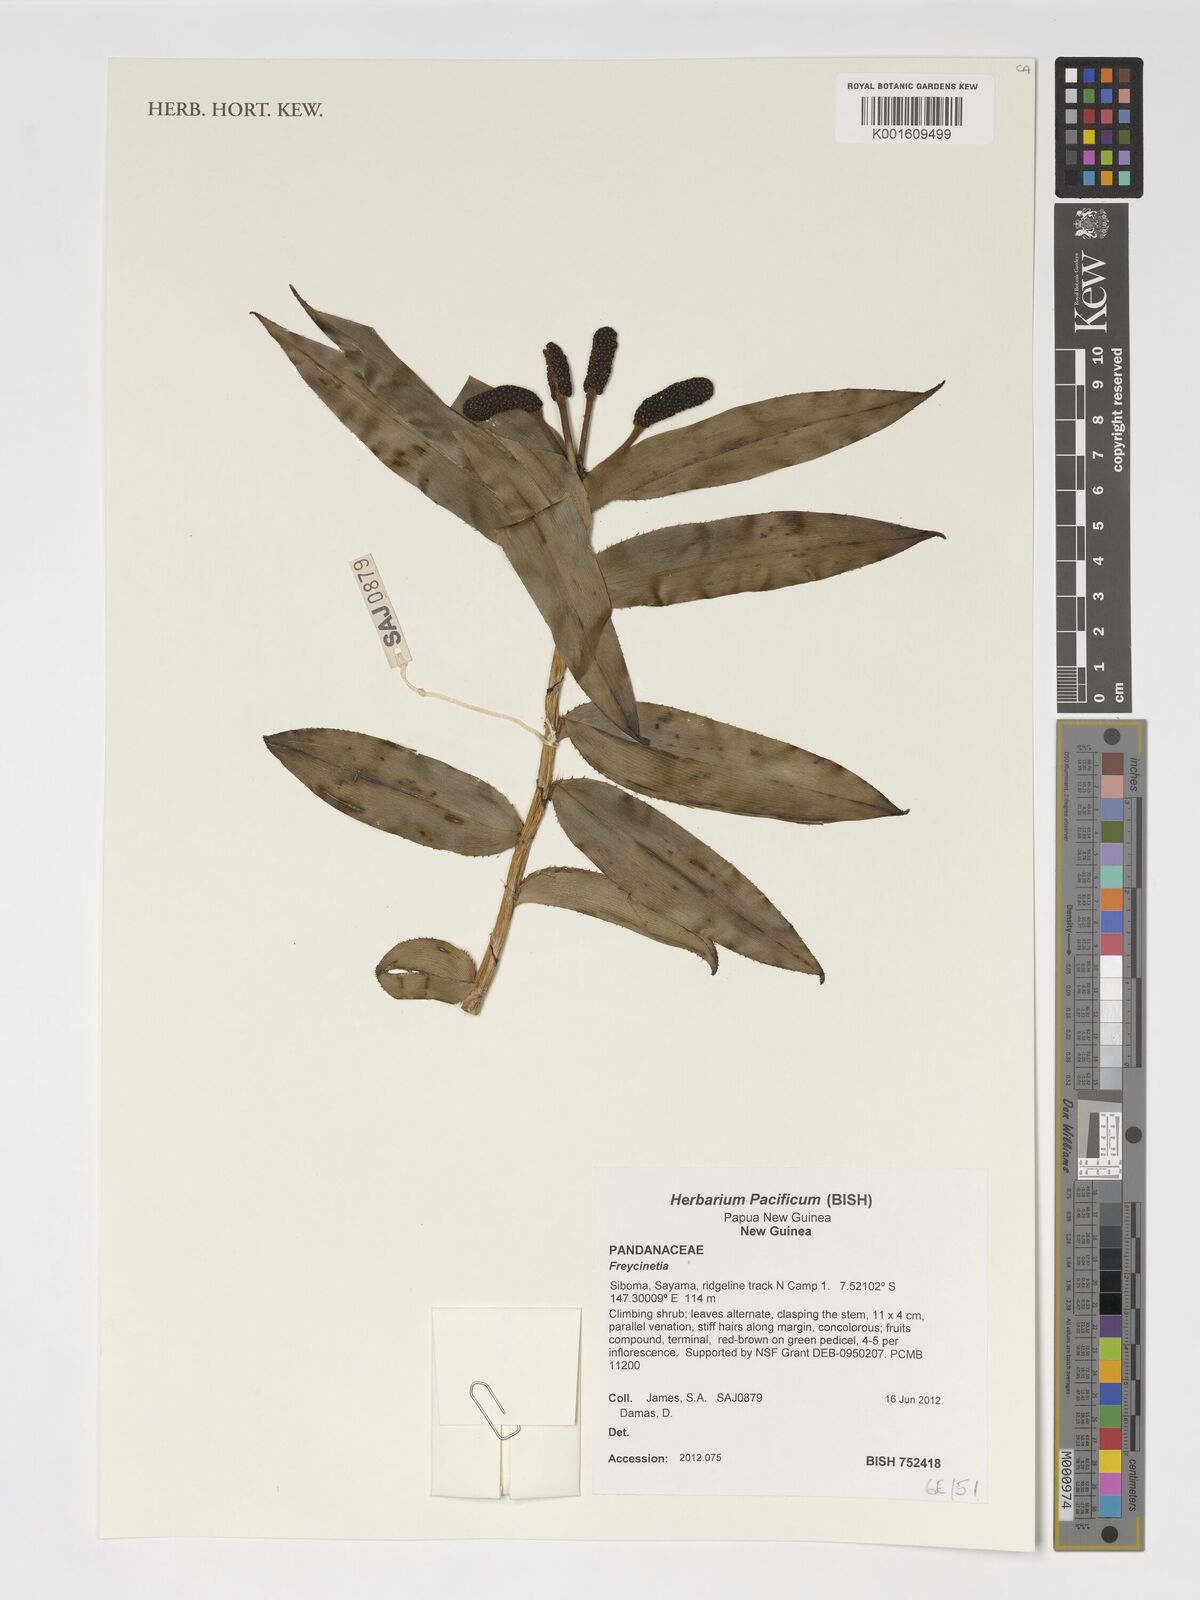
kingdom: Plantae
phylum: Tracheophyta
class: Liliopsida
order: Pandanales
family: Pandanaceae
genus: Freycinetia
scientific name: Freycinetia
